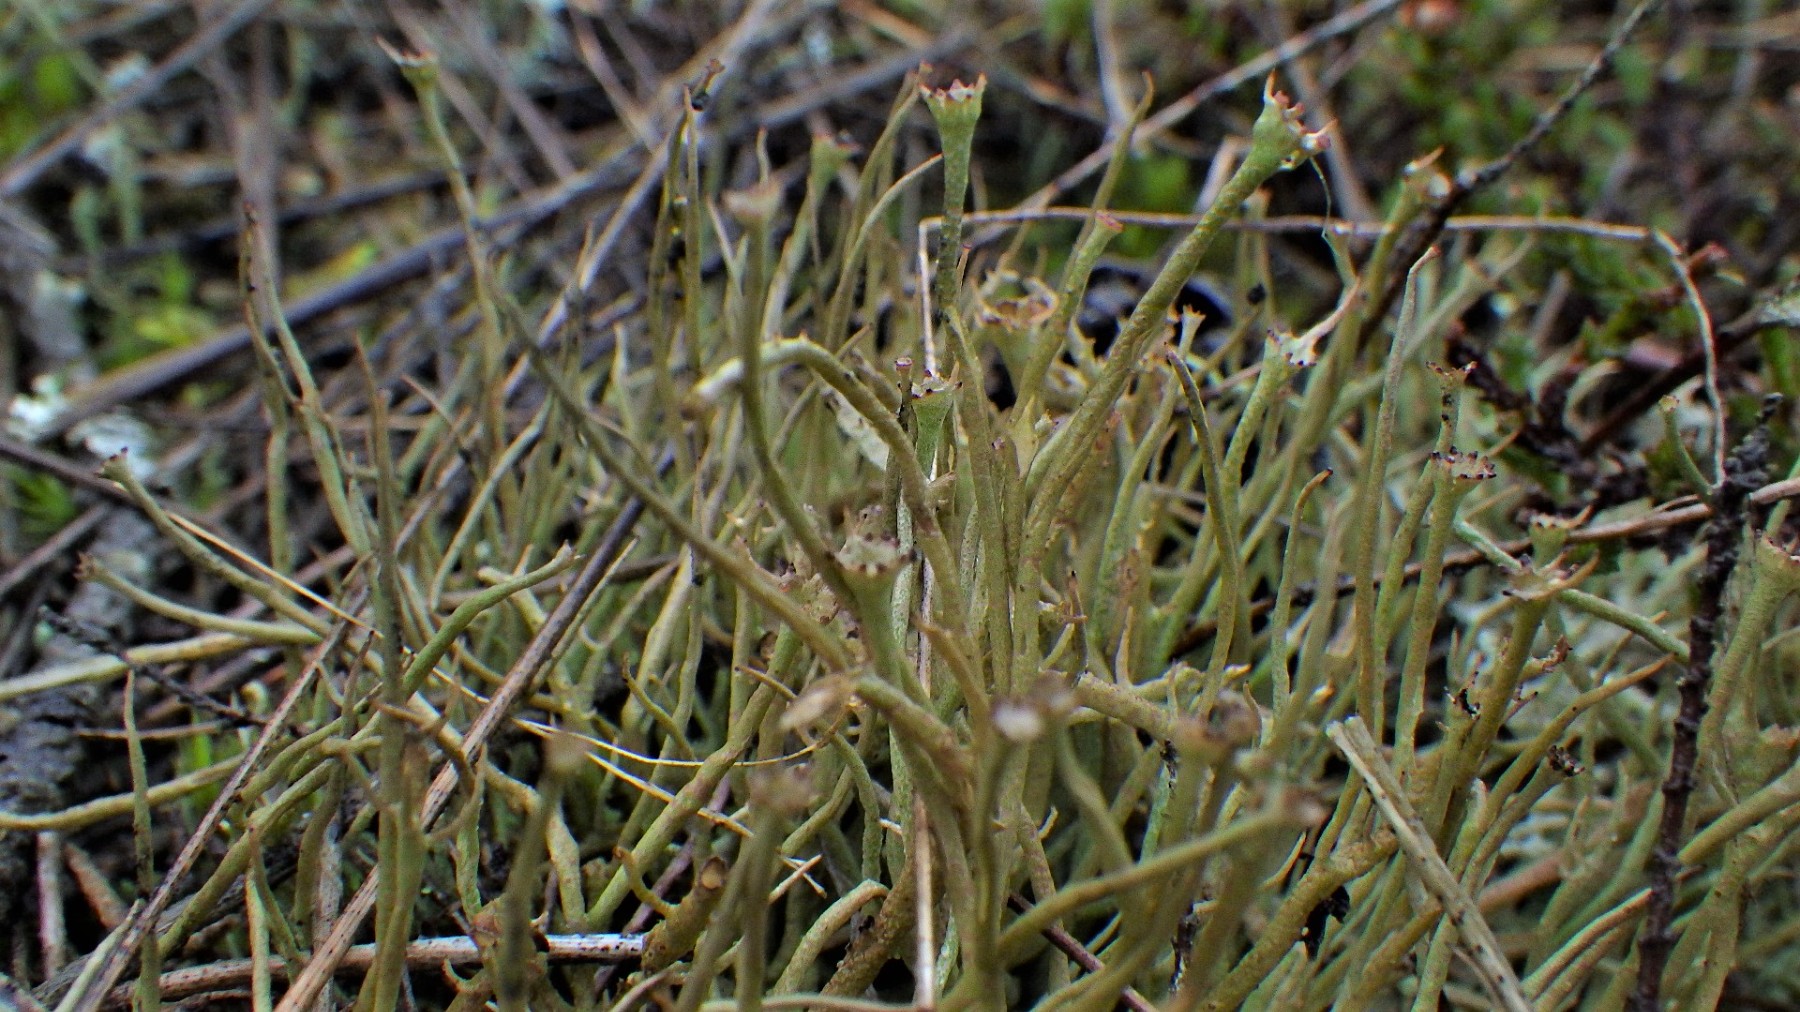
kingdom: Fungi
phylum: Ascomycota
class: Lecanoromycetes
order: Lecanorales
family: Cladoniaceae
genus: Cladonia
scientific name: Cladonia gracilis
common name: slank bægerlav
